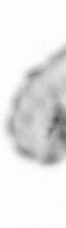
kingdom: Animalia
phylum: Annelida
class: Polychaeta
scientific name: Polychaeta
